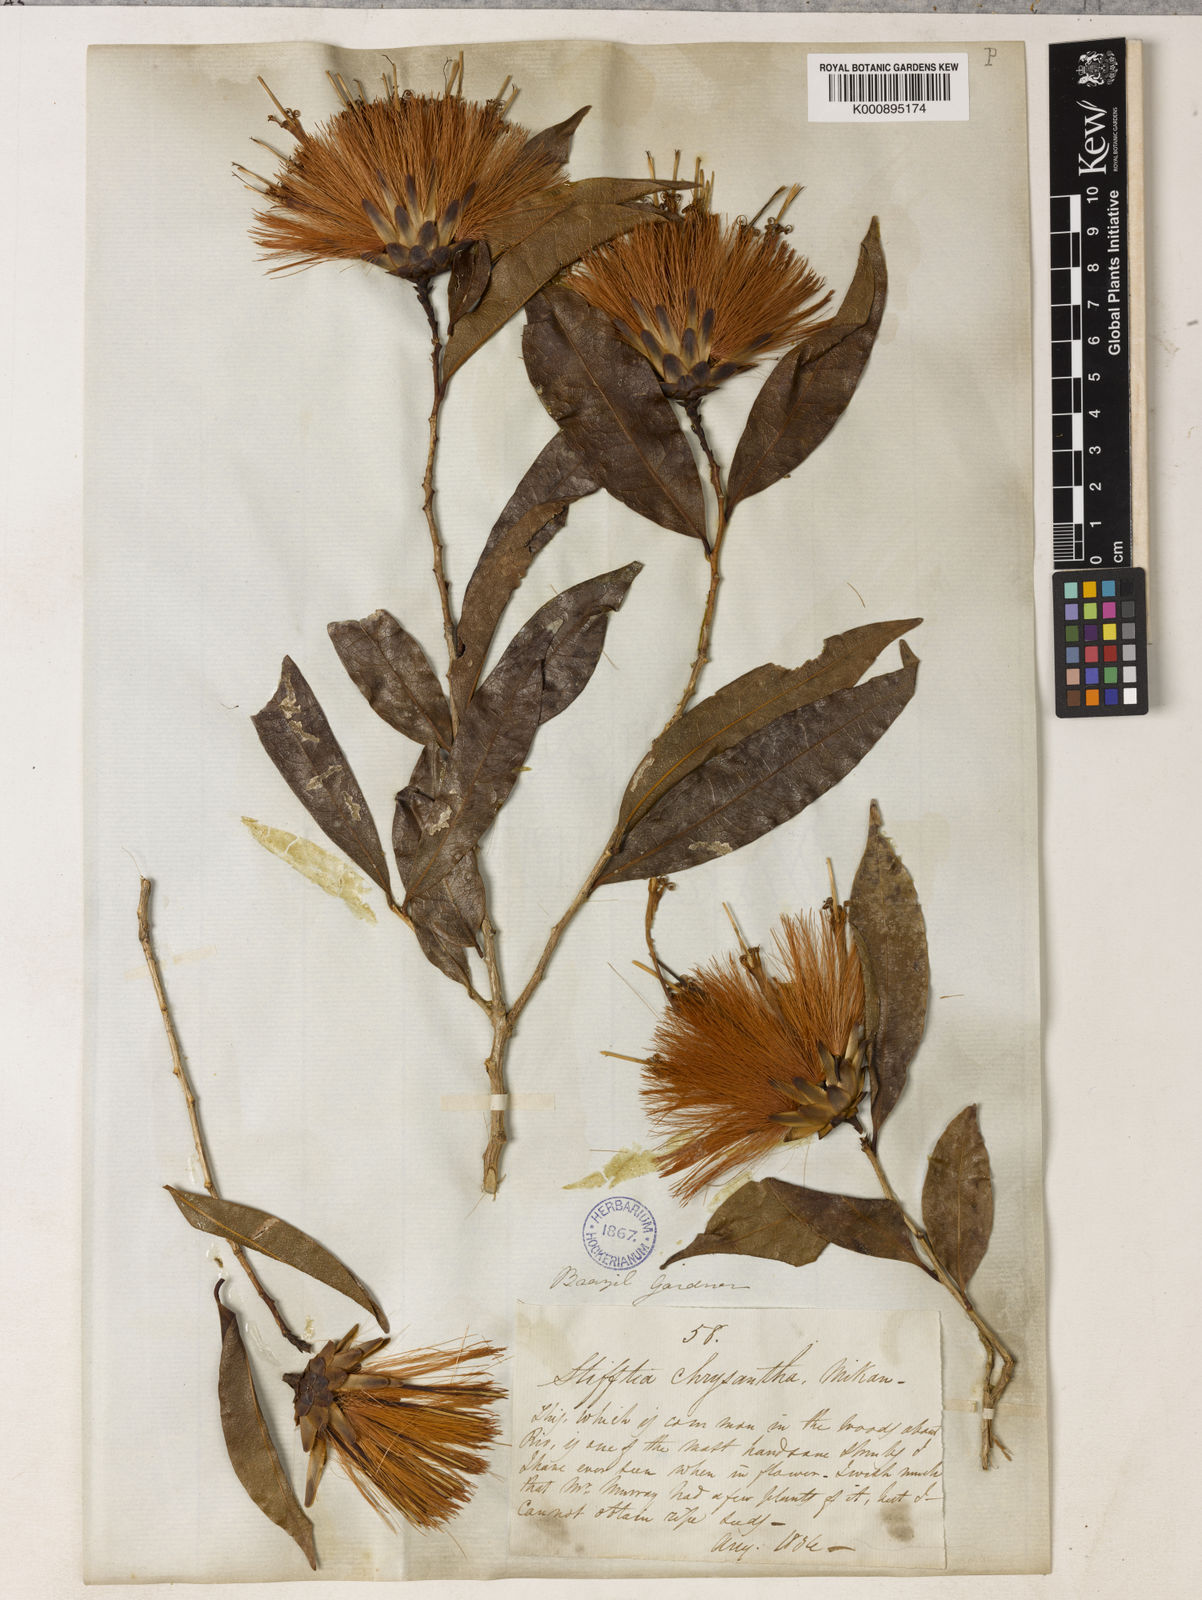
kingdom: Plantae
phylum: Tracheophyta
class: Magnoliopsida
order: Asterales
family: Asteraceae
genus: Stifftia
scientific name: Stifftia chrysantha
